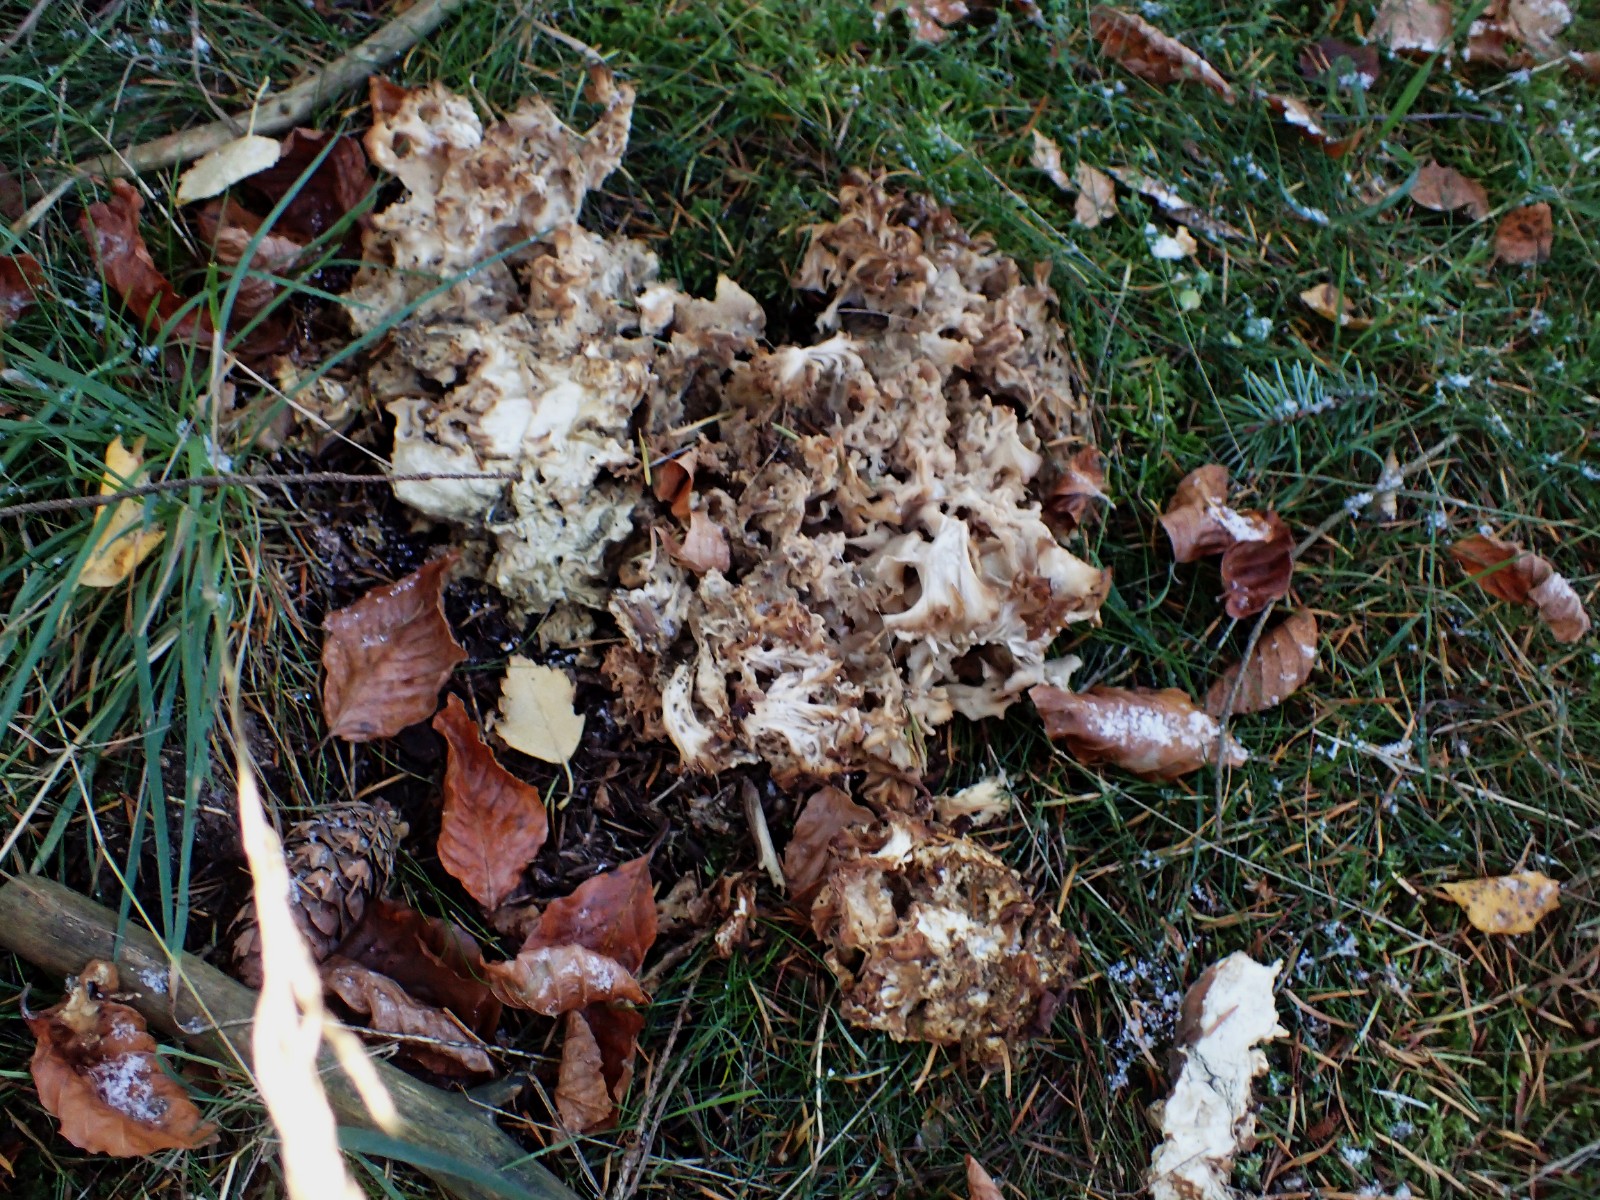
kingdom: Fungi
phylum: Basidiomycota
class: Agaricomycetes
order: Polyporales
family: Sparassidaceae
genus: Sparassis
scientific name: Sparassis crispa
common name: kruset blomkålssvamp
